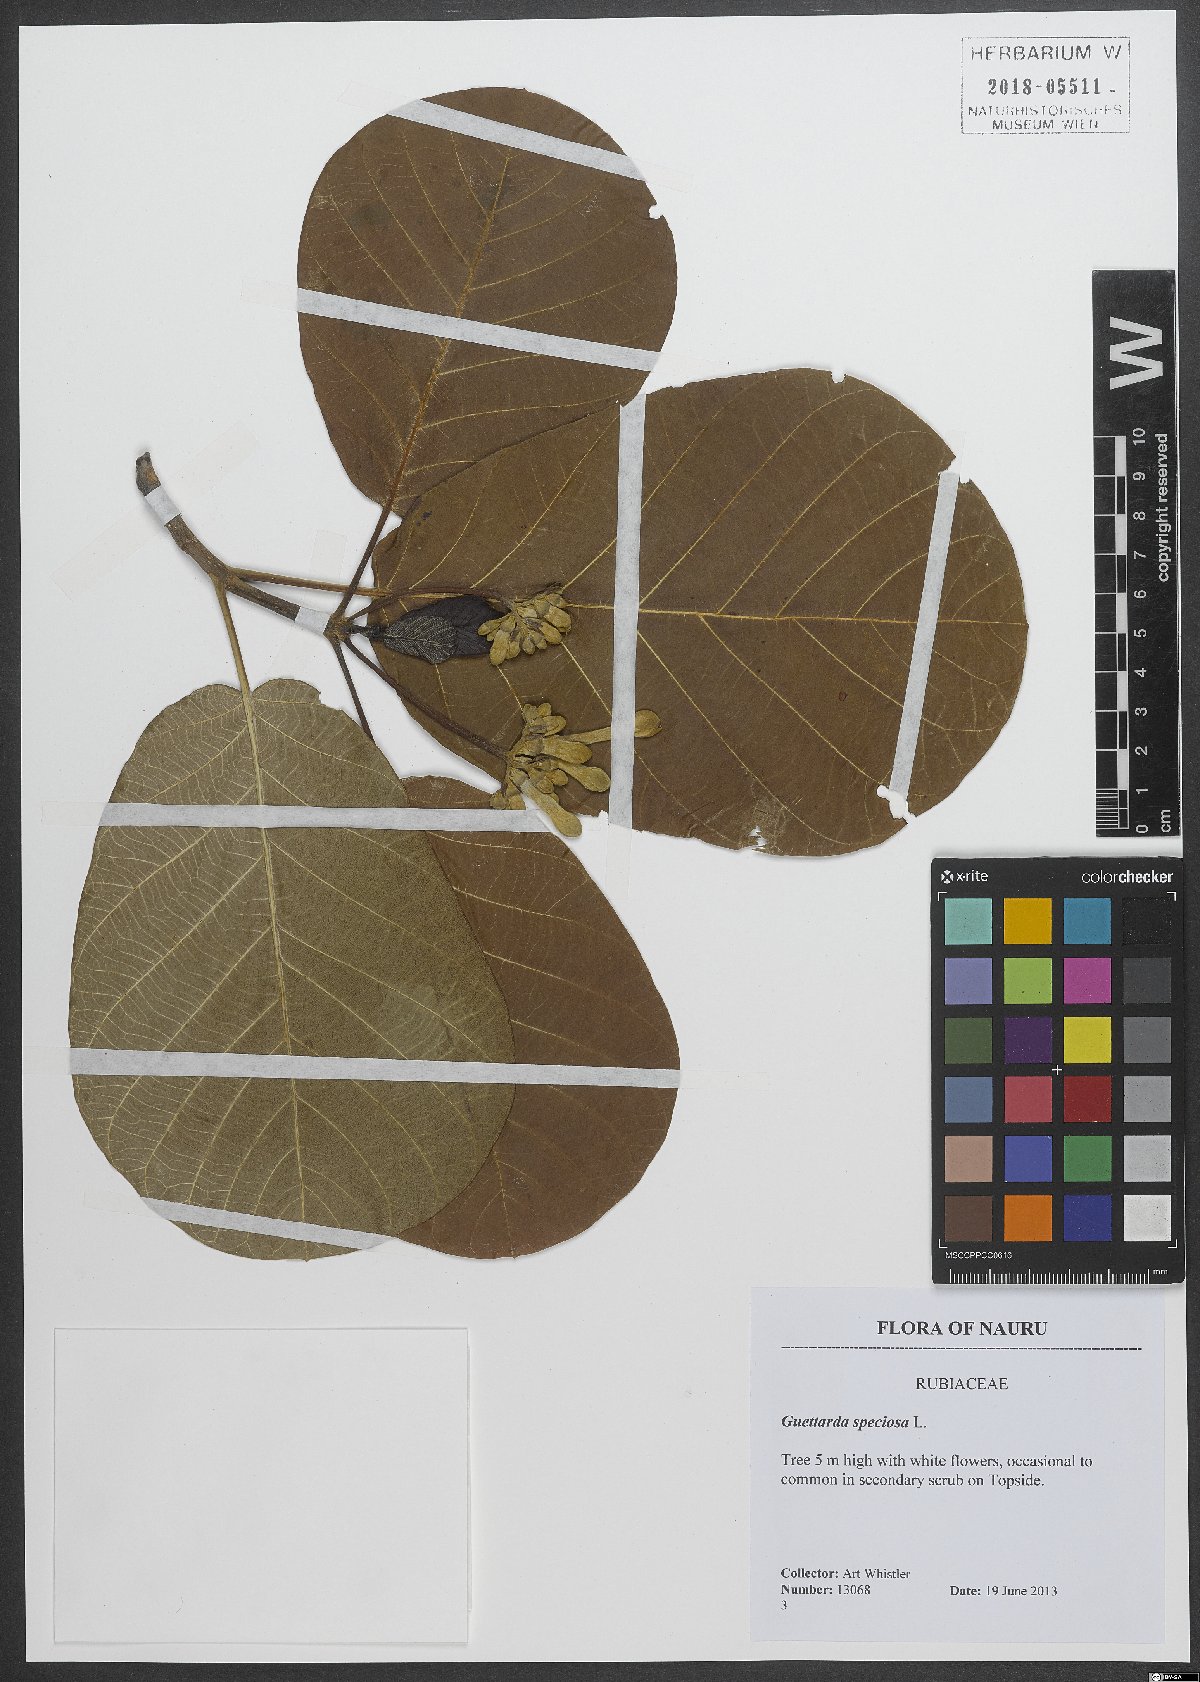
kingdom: Plantae
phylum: Tracheophyta
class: Magnoliopsida
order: Gentianales
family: Rubiaceae
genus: Guettarda
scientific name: Guettarda speciosa
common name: Sea randa
